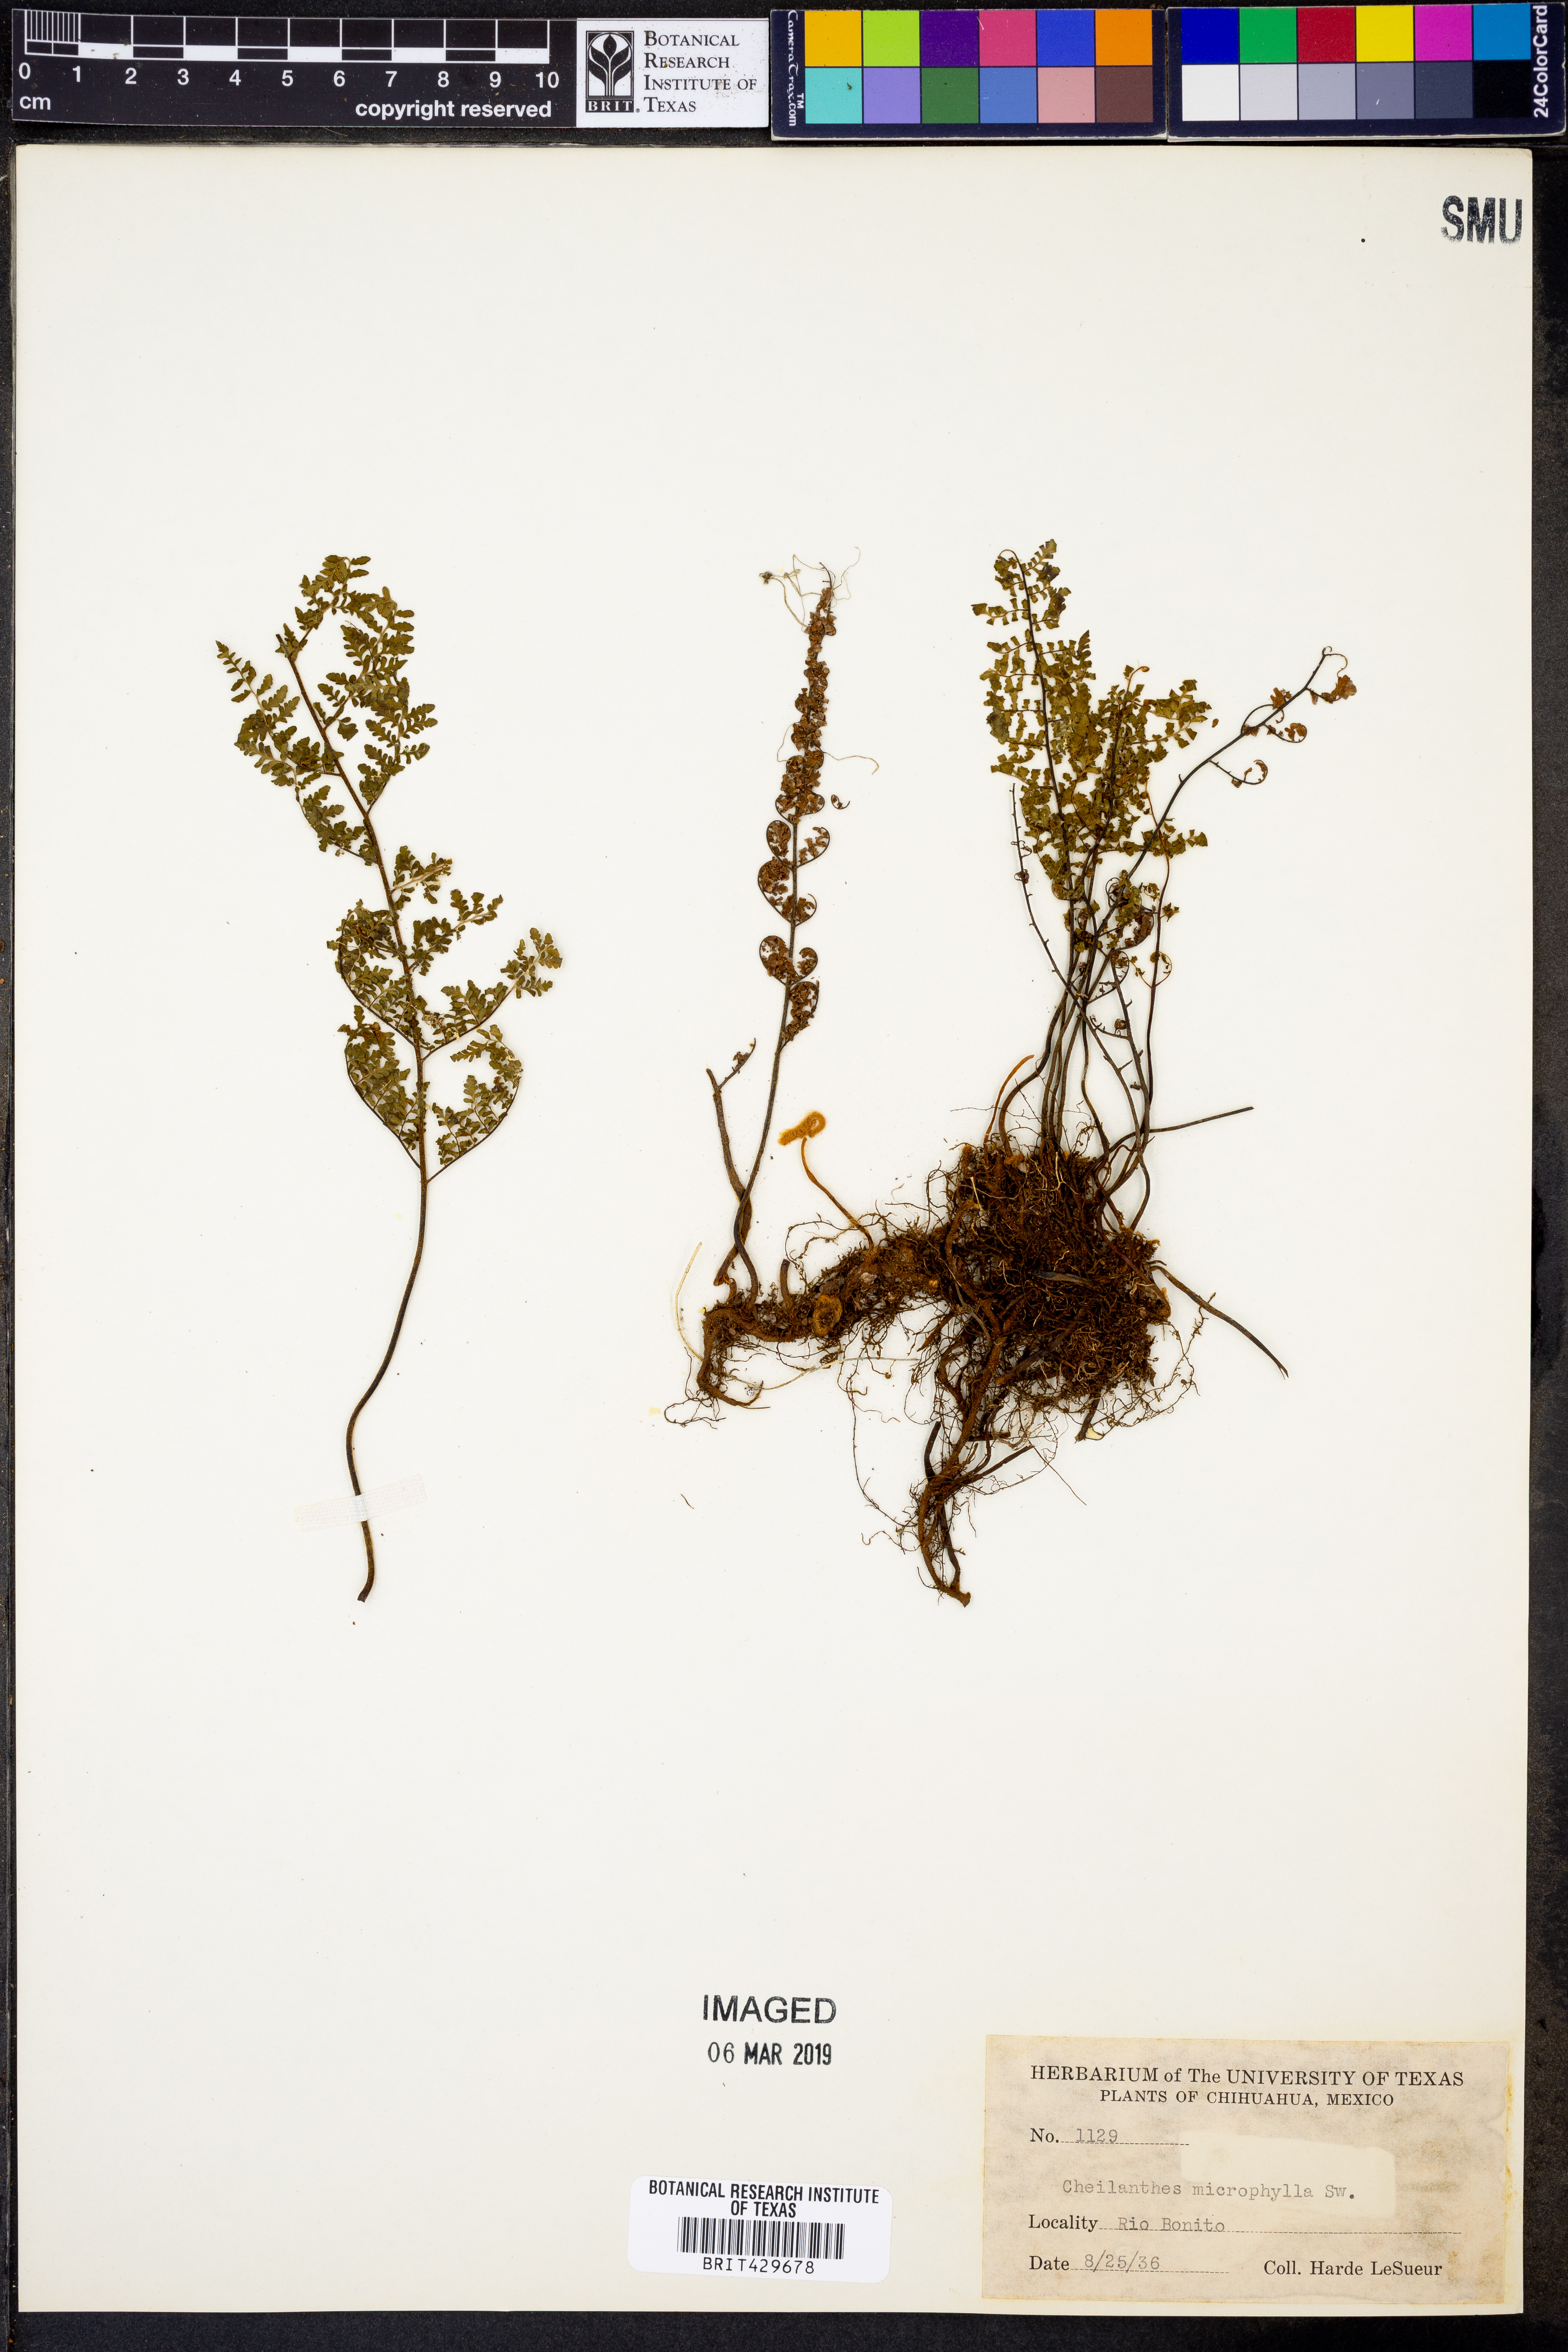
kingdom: Plantae
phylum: Tracheophyta
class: Polypodiopsida
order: Polypodiales
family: Pteridaceae
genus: Myriopteris
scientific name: Myriopteris microphylla
